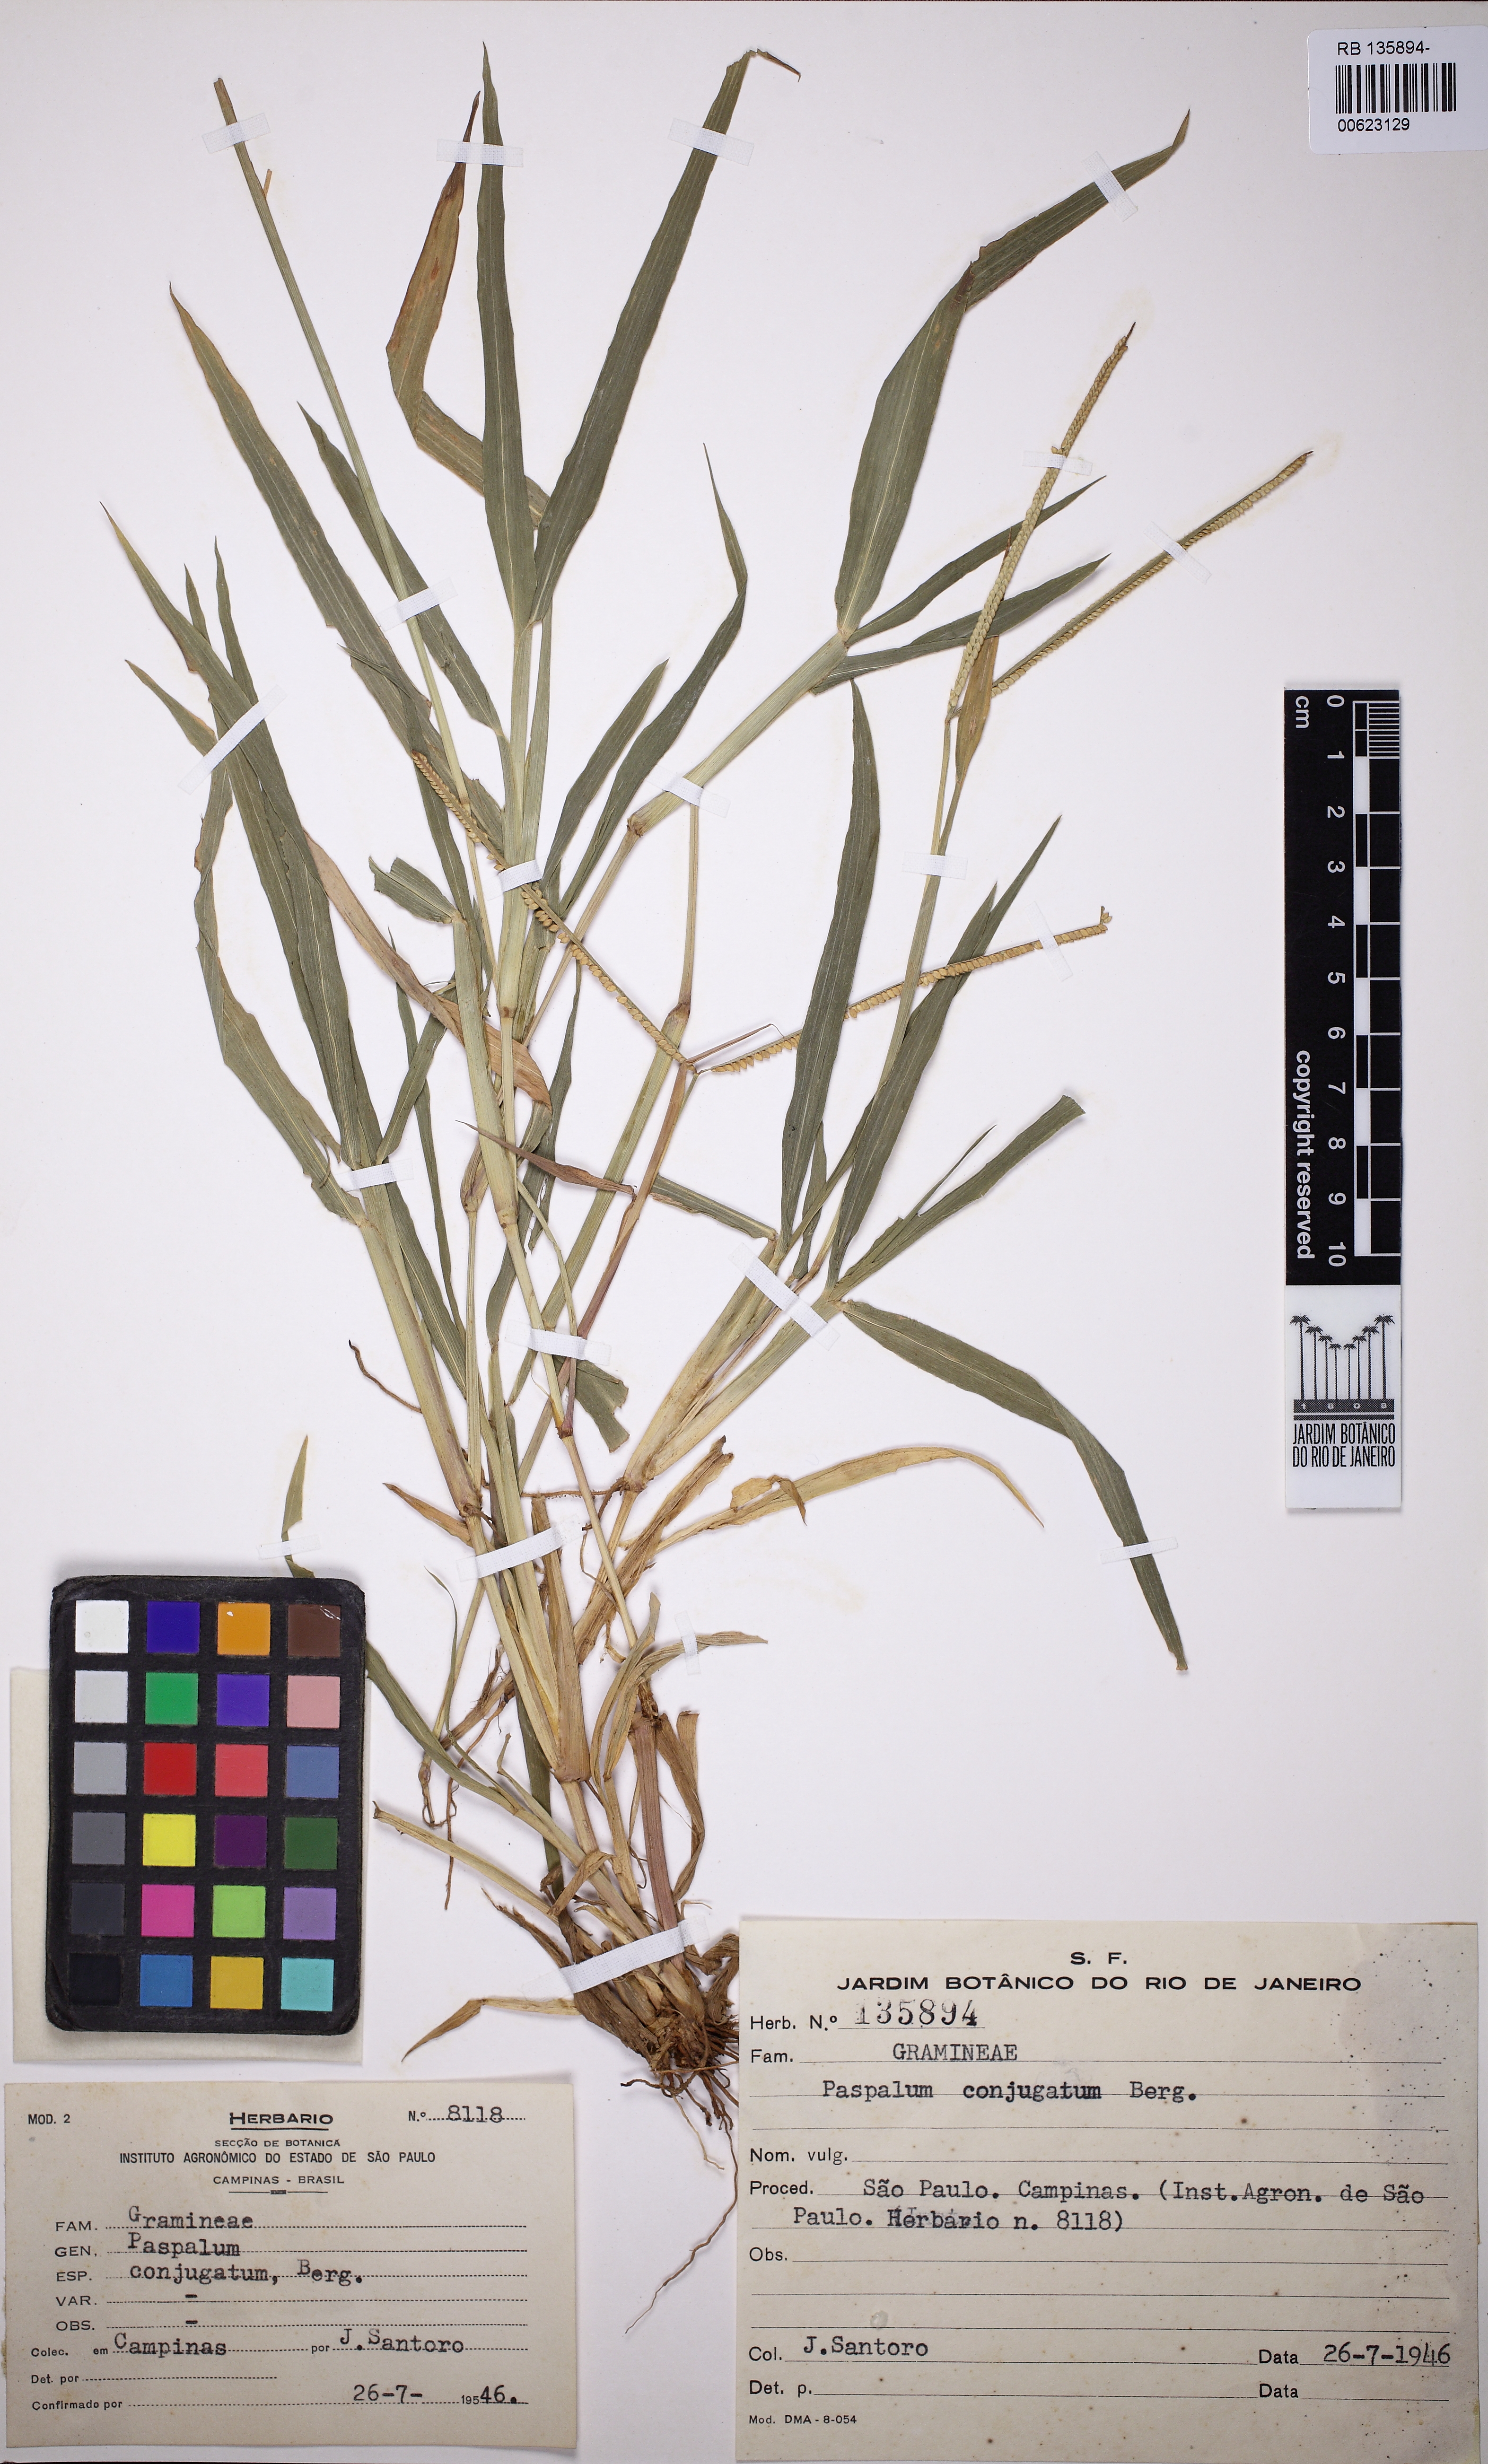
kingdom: Plantae
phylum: Tracheophyta
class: Liliopsida
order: Poales
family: Poaceae
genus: Paspalum
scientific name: Paspalum conjugatum
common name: Hilograss
